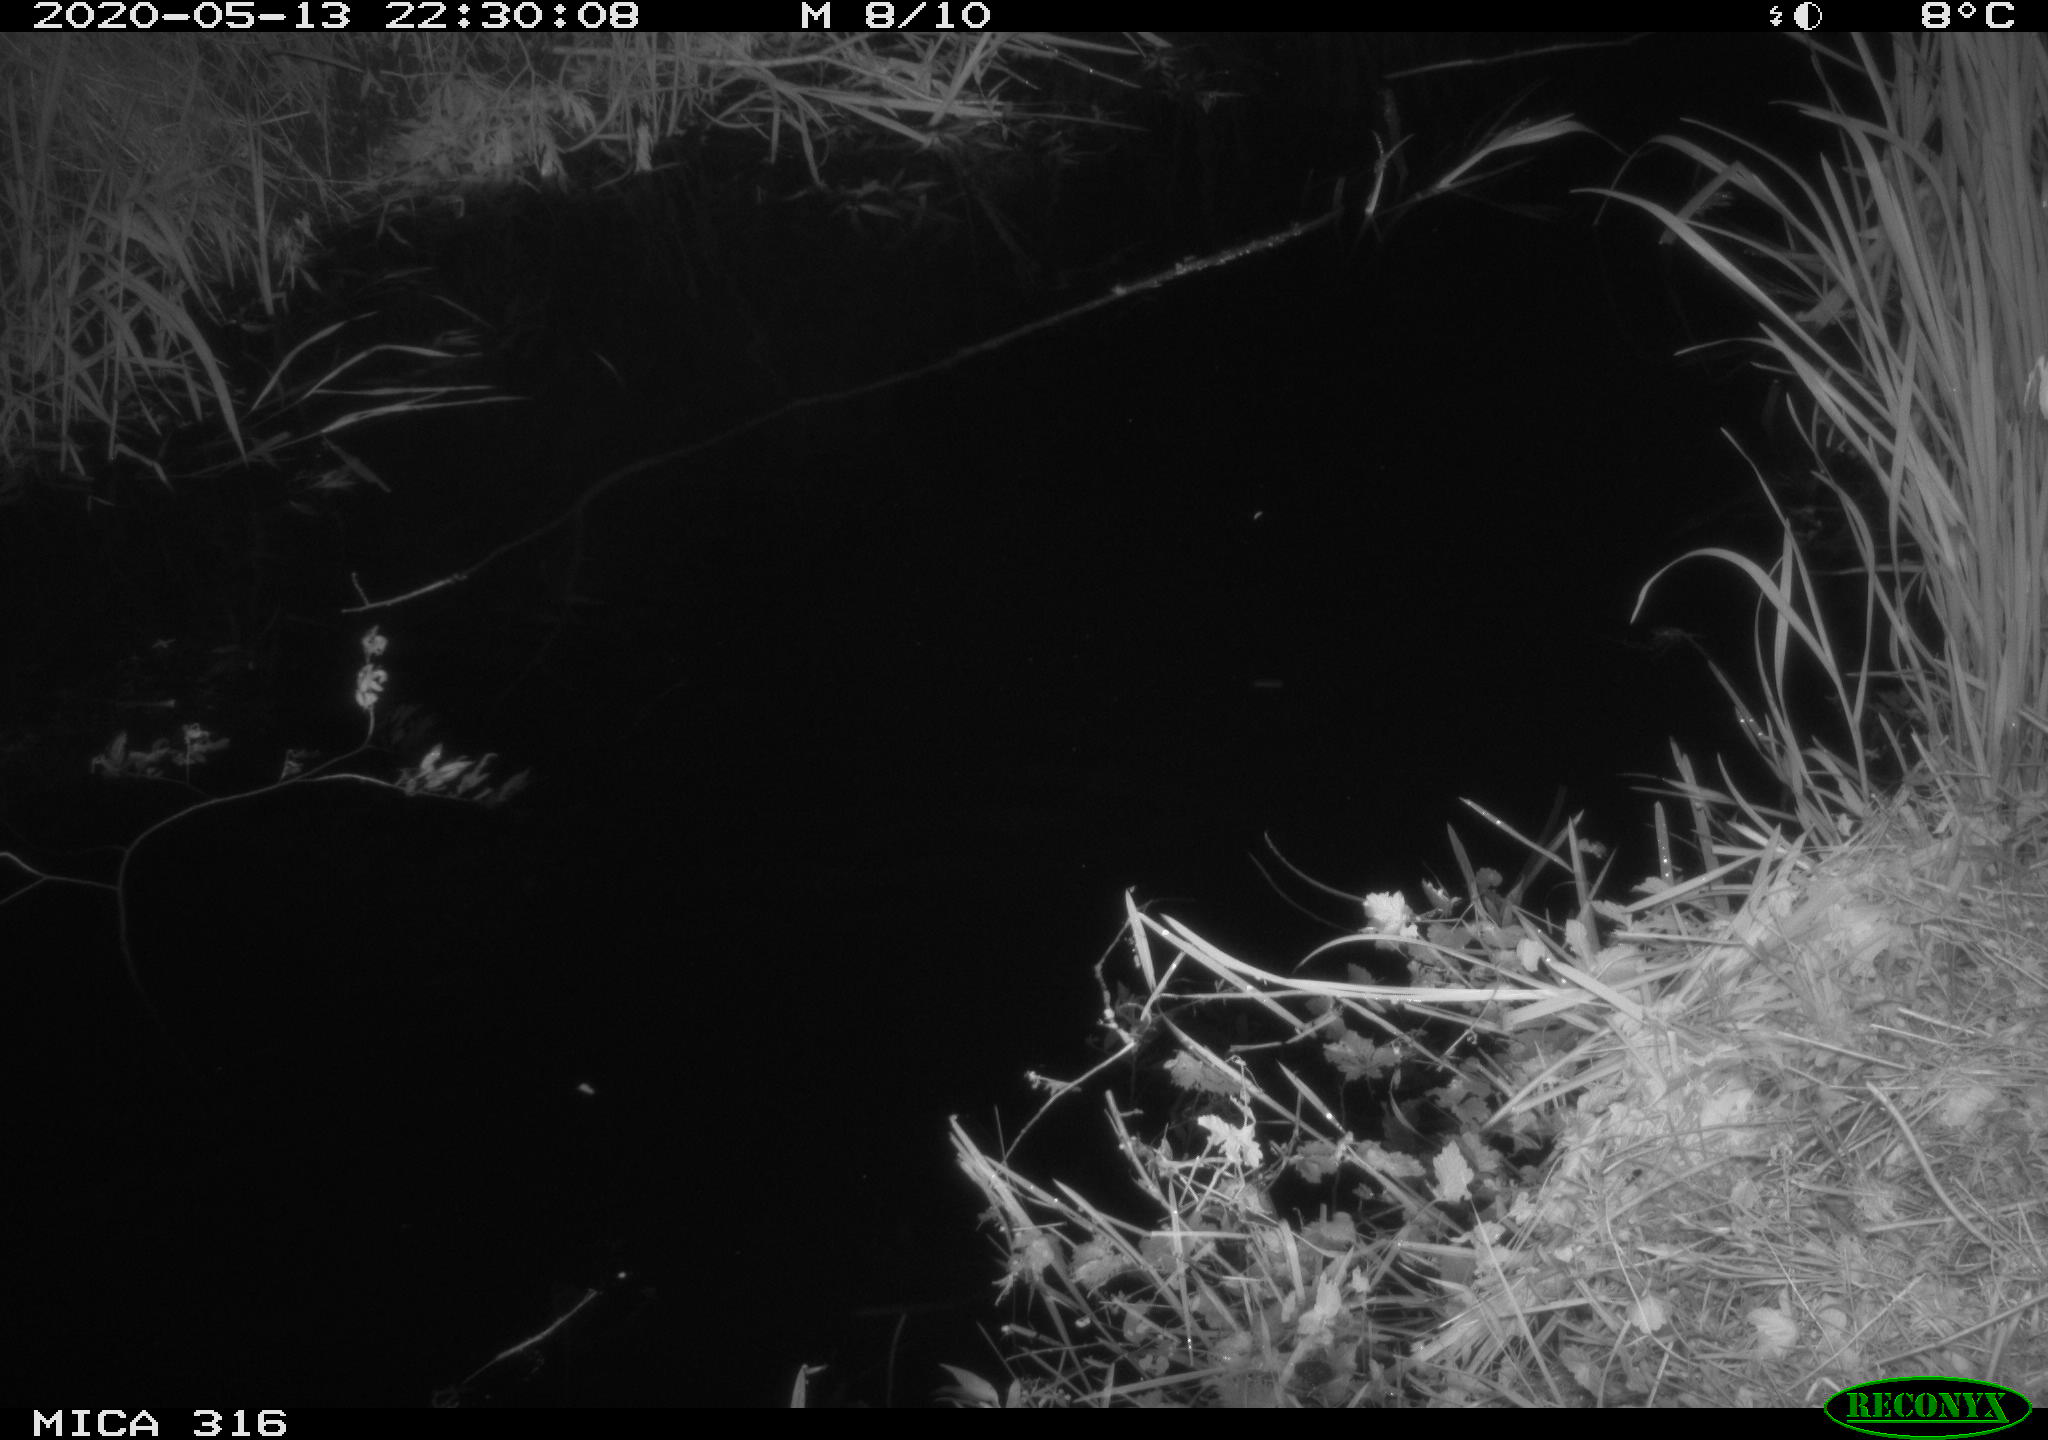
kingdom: Animalia
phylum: Chordata
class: Mammalia
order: Rodentia
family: Cricetidae
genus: Ondatra
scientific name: Ondatra zibethicus
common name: Muskrat
